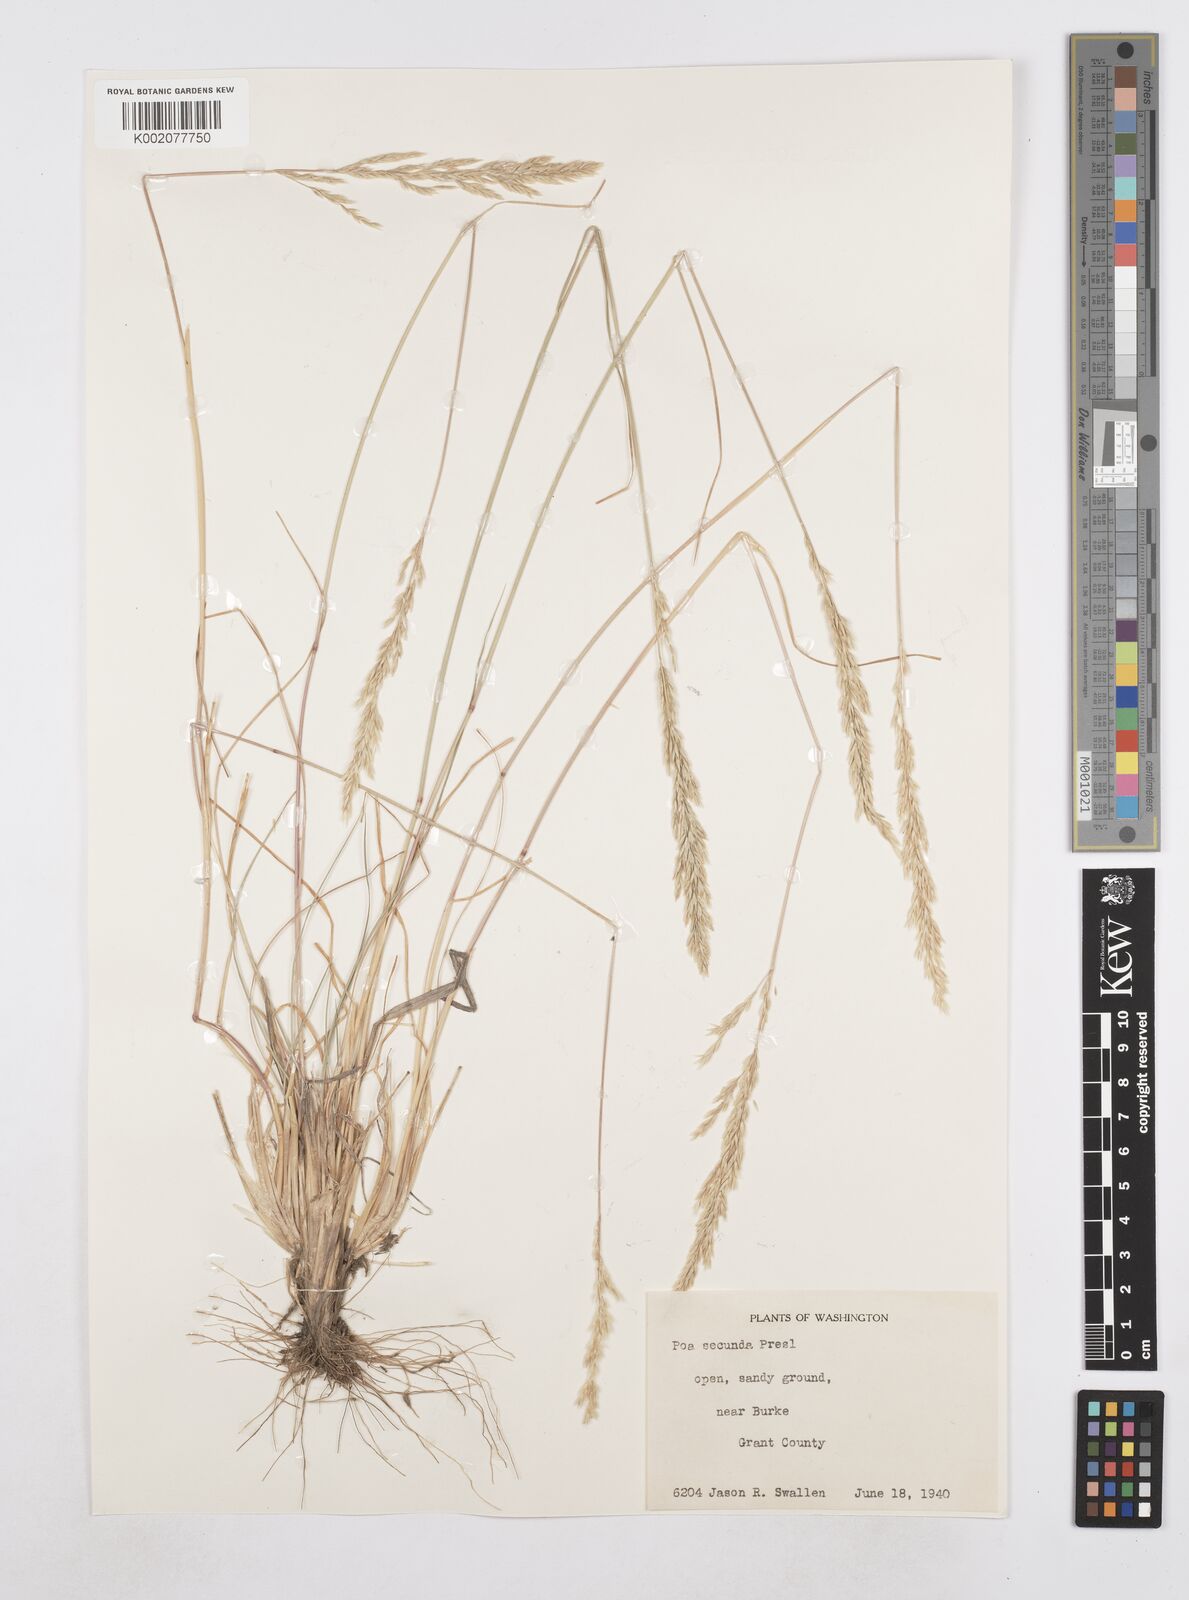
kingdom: Plantae
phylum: Tracheophyta
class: Liliopsida
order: Poales
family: Poaceae
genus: Poa
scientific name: Poa secunda
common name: Sandberg bluegrass
